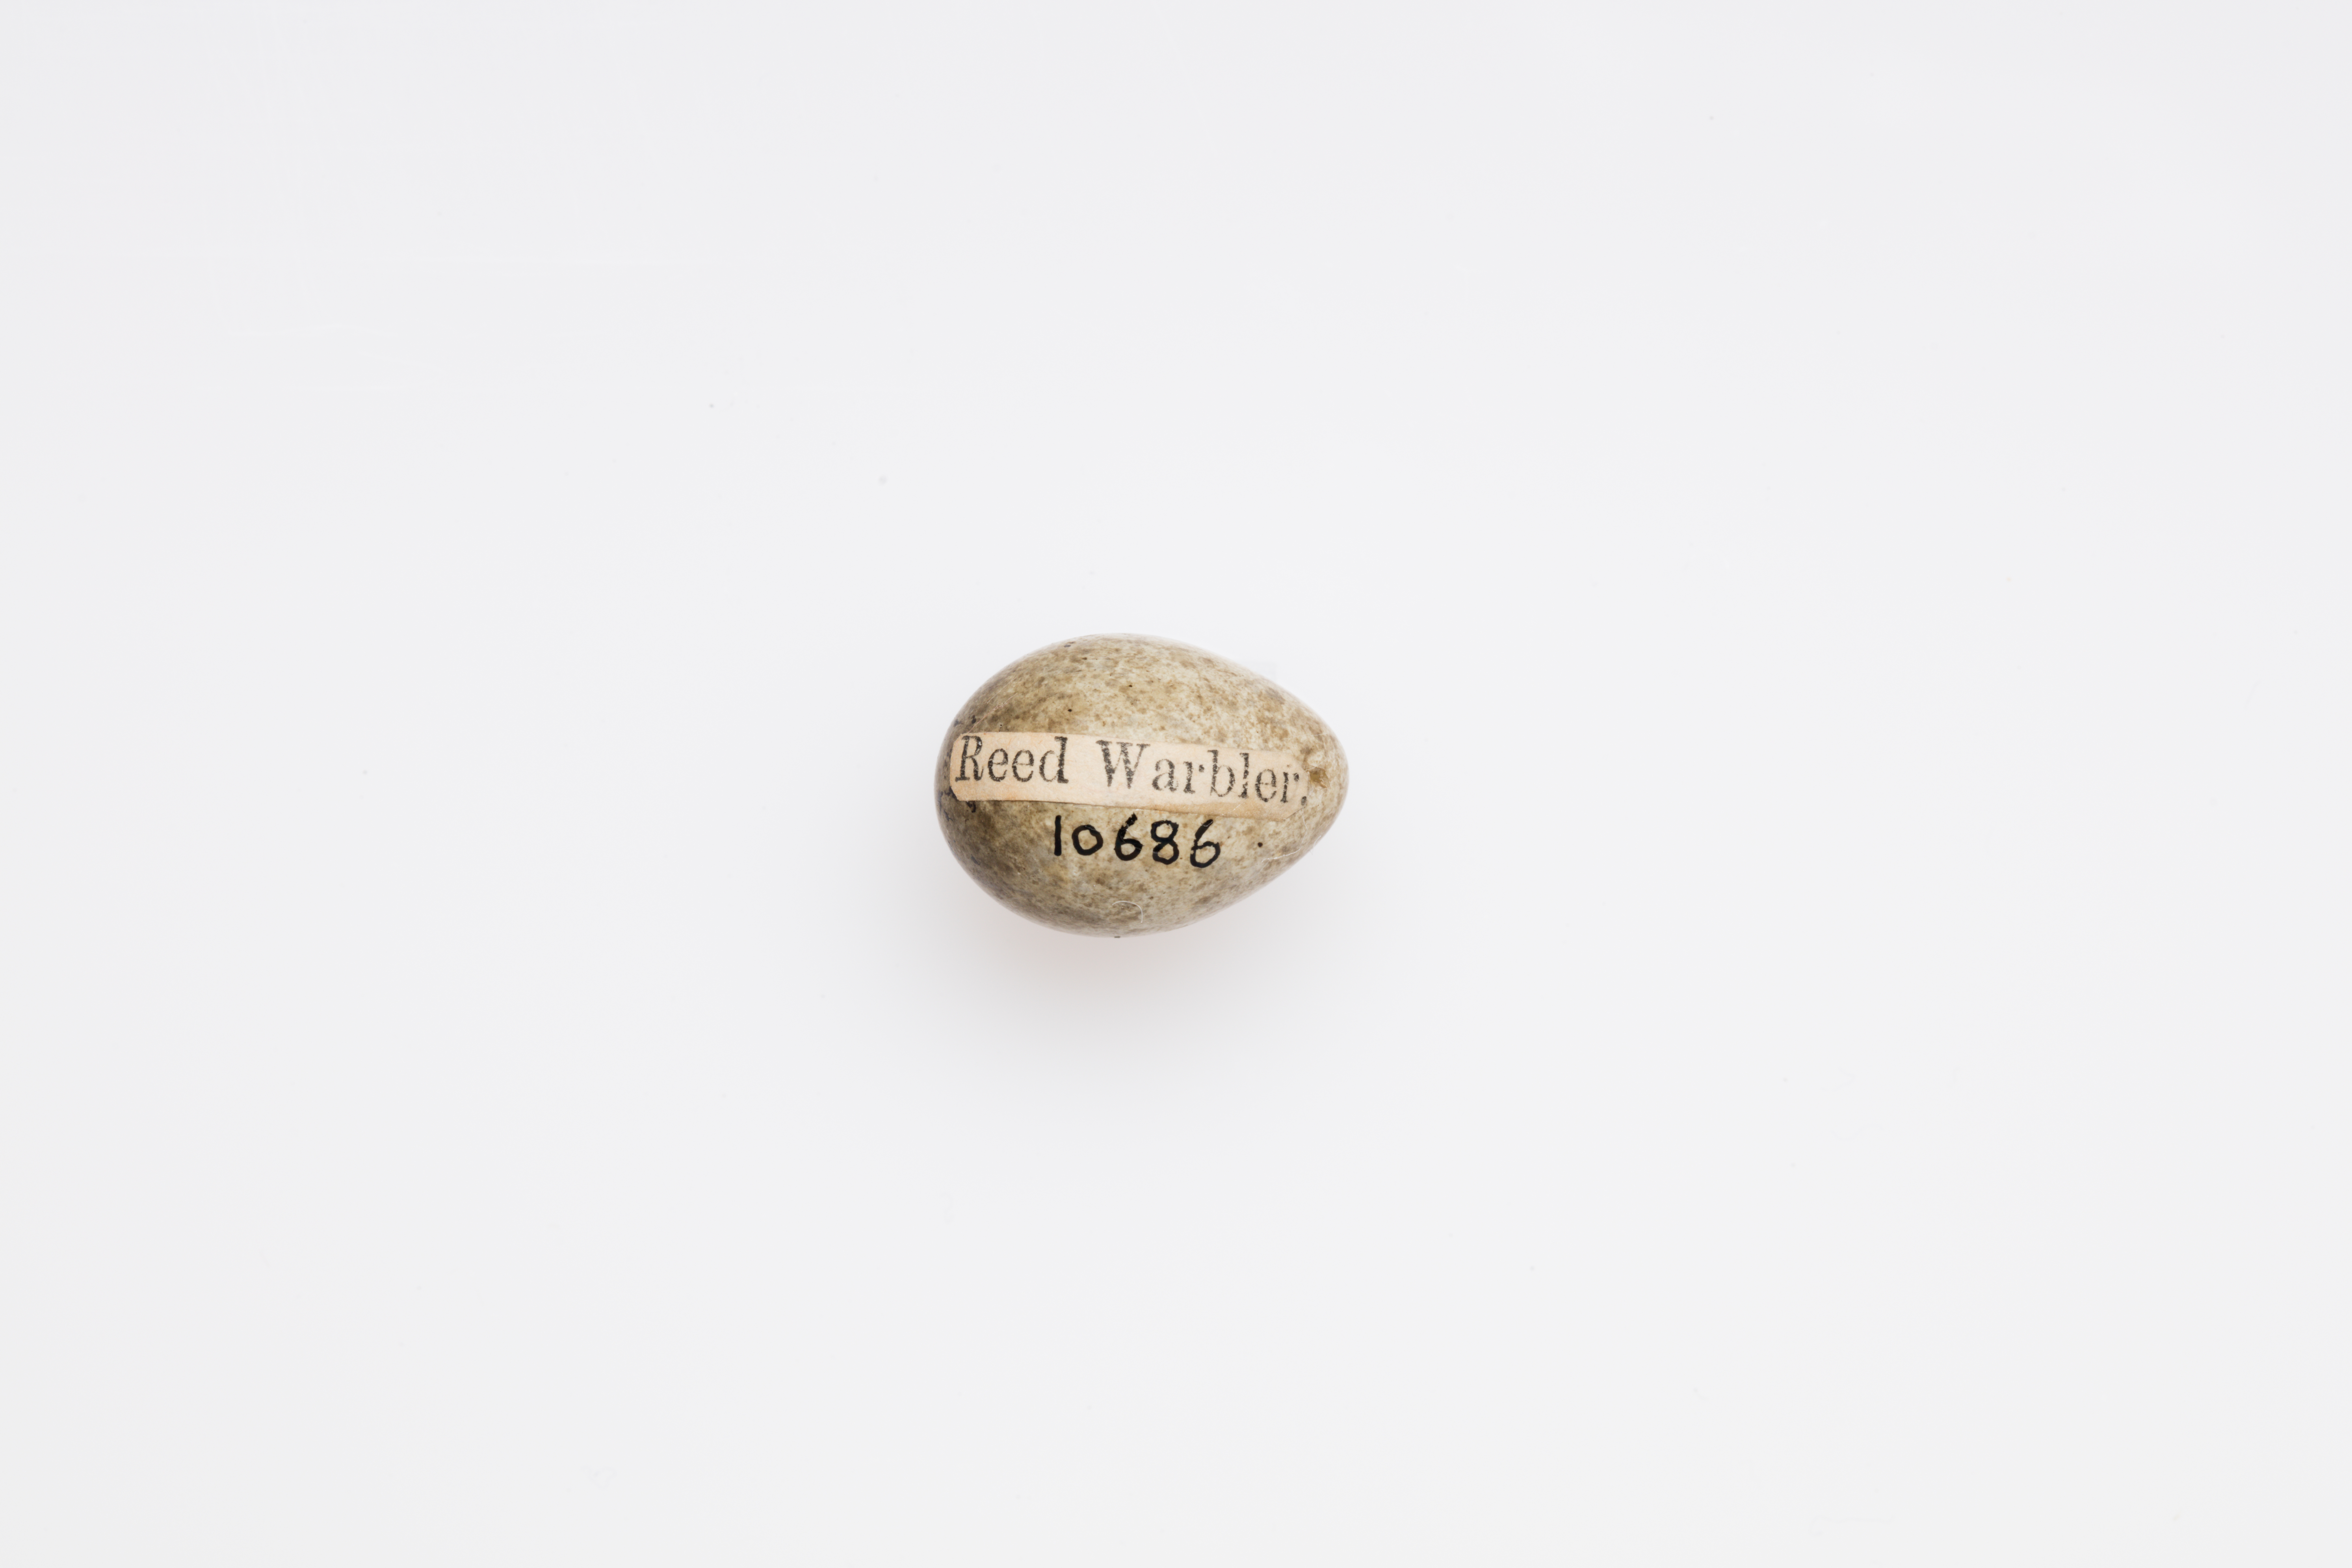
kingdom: Animalia
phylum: Chordata
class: Aves
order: Passeriformes
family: Acrocephalidae
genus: Acrocephalus
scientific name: Acrocephalus scirpaceus
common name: Eurasian reed warbler
